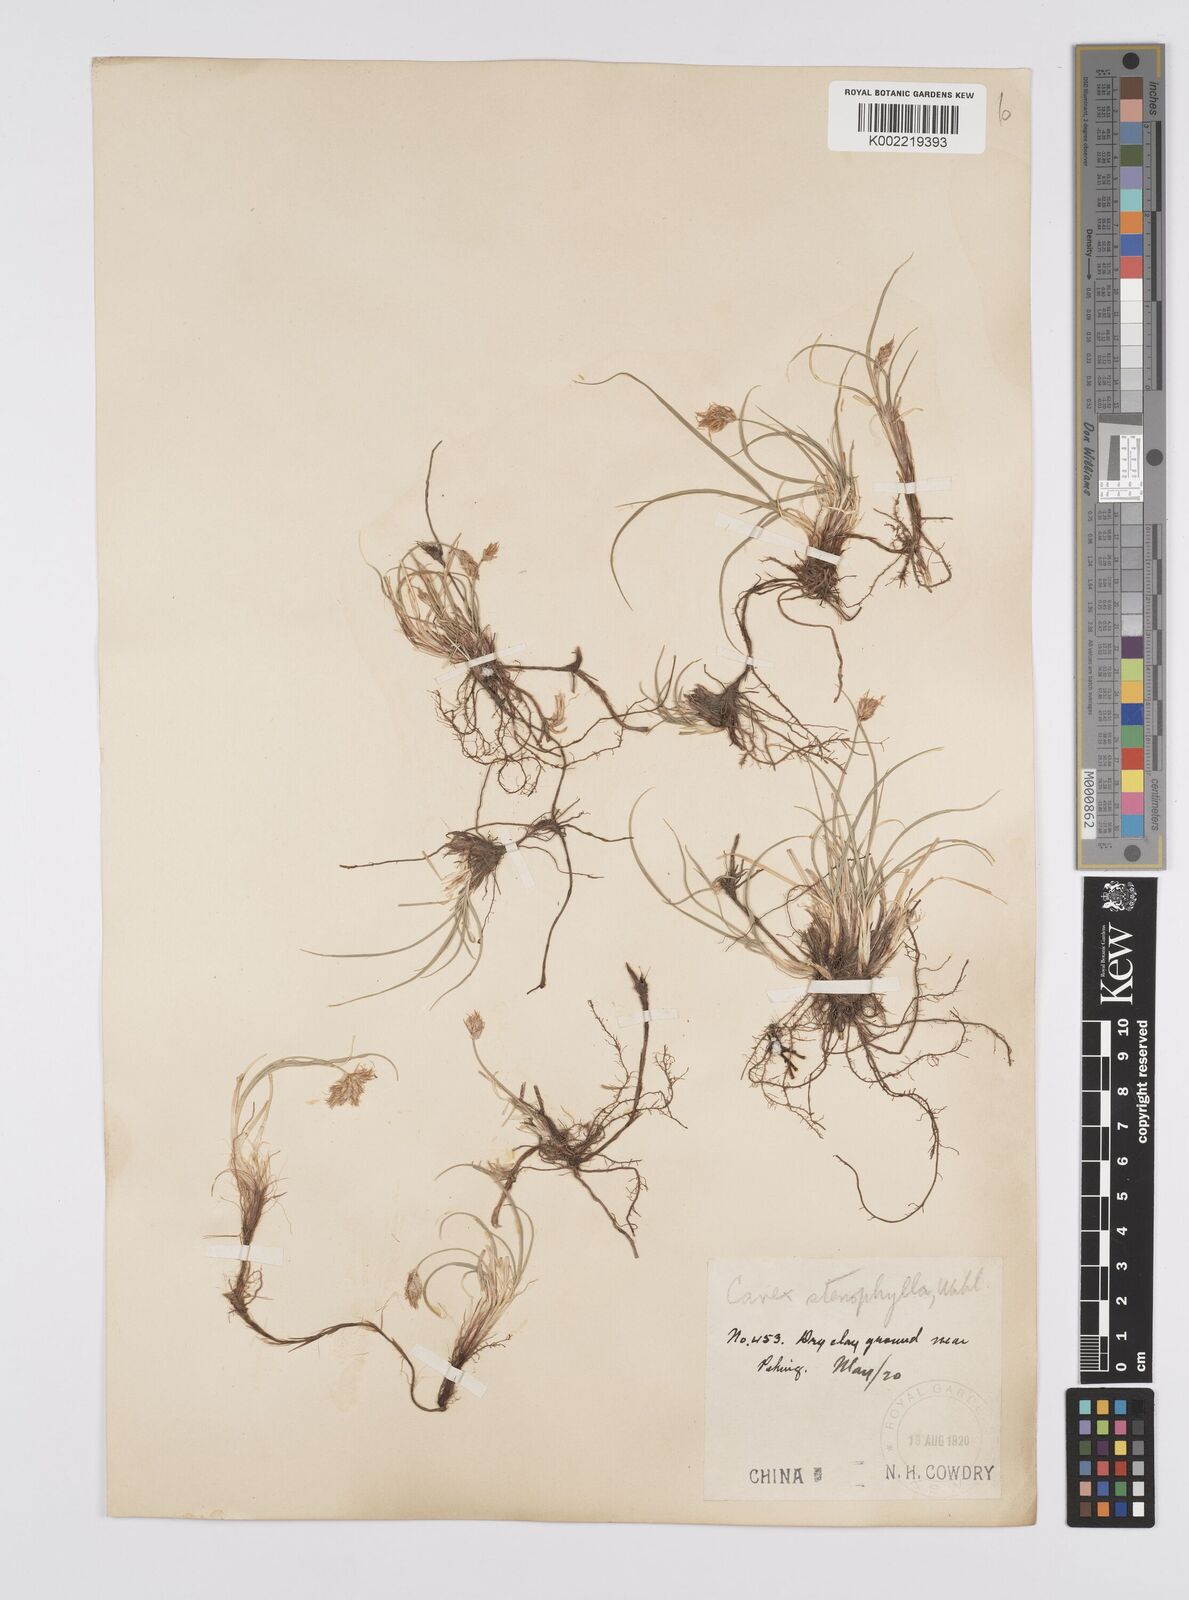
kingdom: Plantae
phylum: Tracheophyta
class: Liliopsida
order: Poales
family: Cyperaceae
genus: Carex
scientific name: Carex stenophylla
